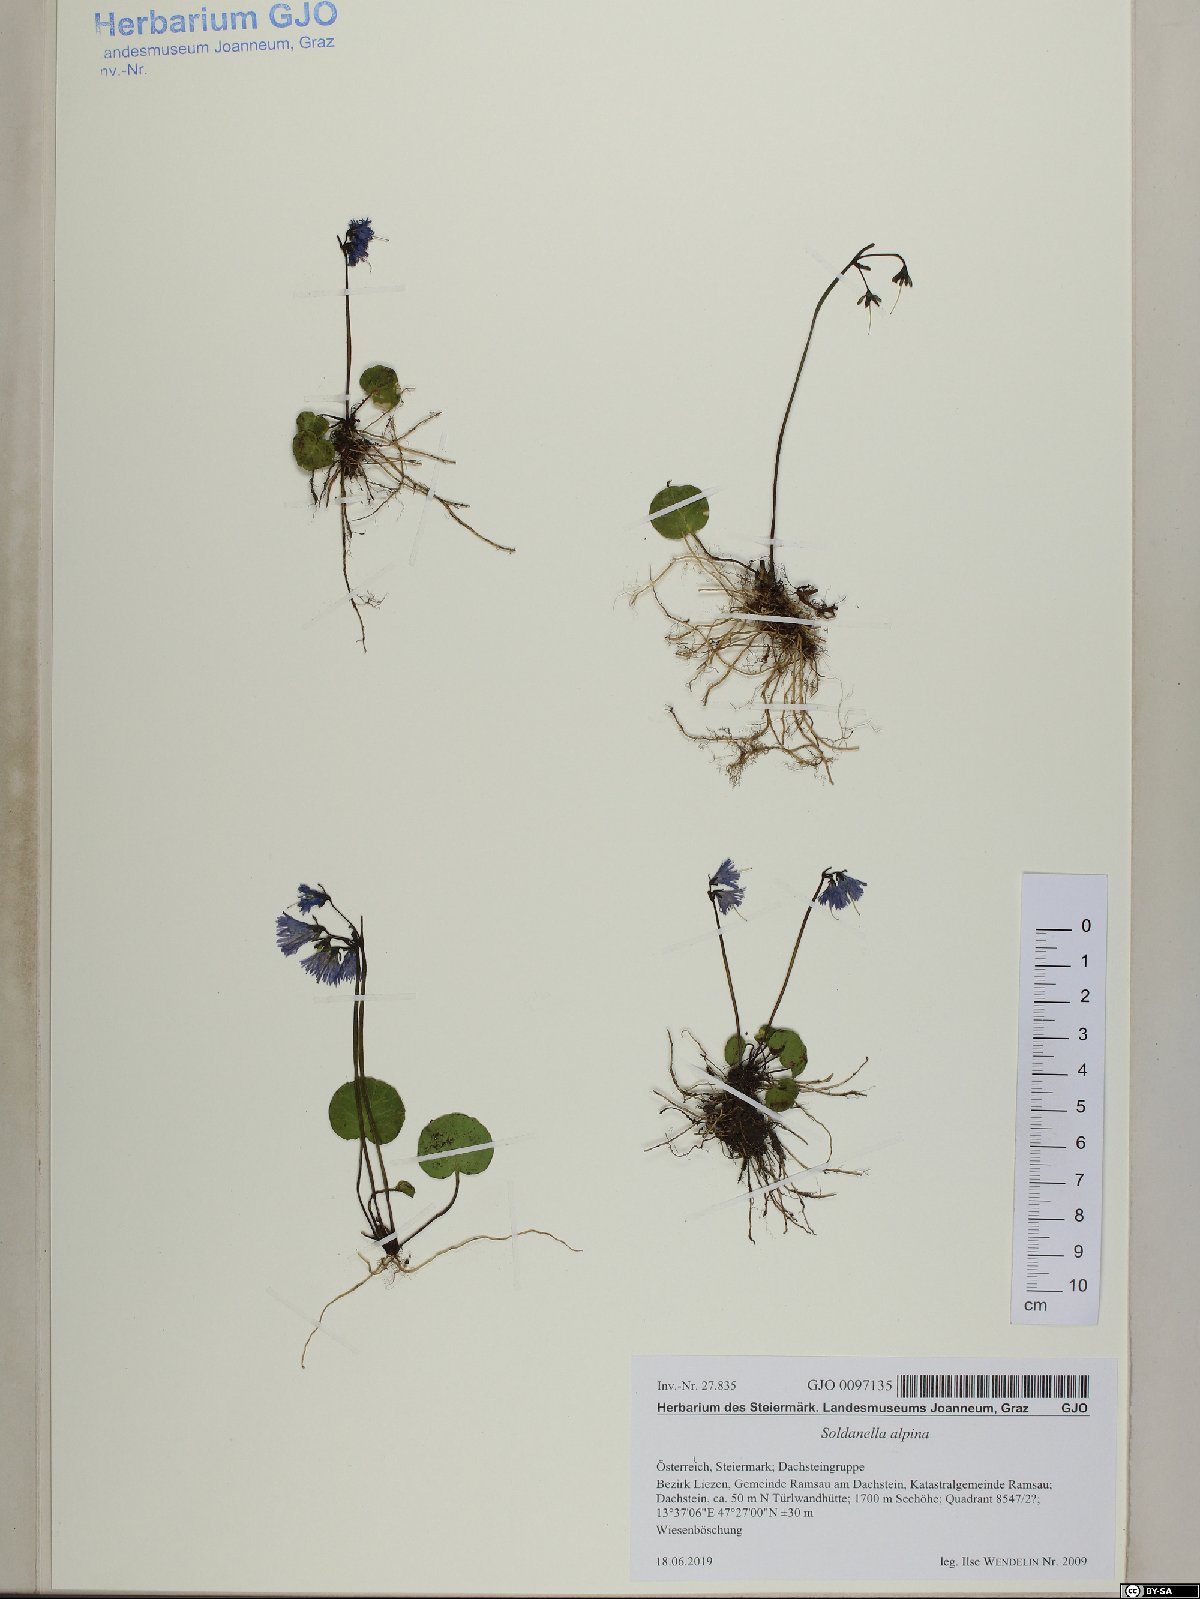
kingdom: Plantae
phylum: Tracheophyta
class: Magnoliopsida
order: Ericales
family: Primulaceae
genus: Soldanella
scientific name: Soldanella alpina
